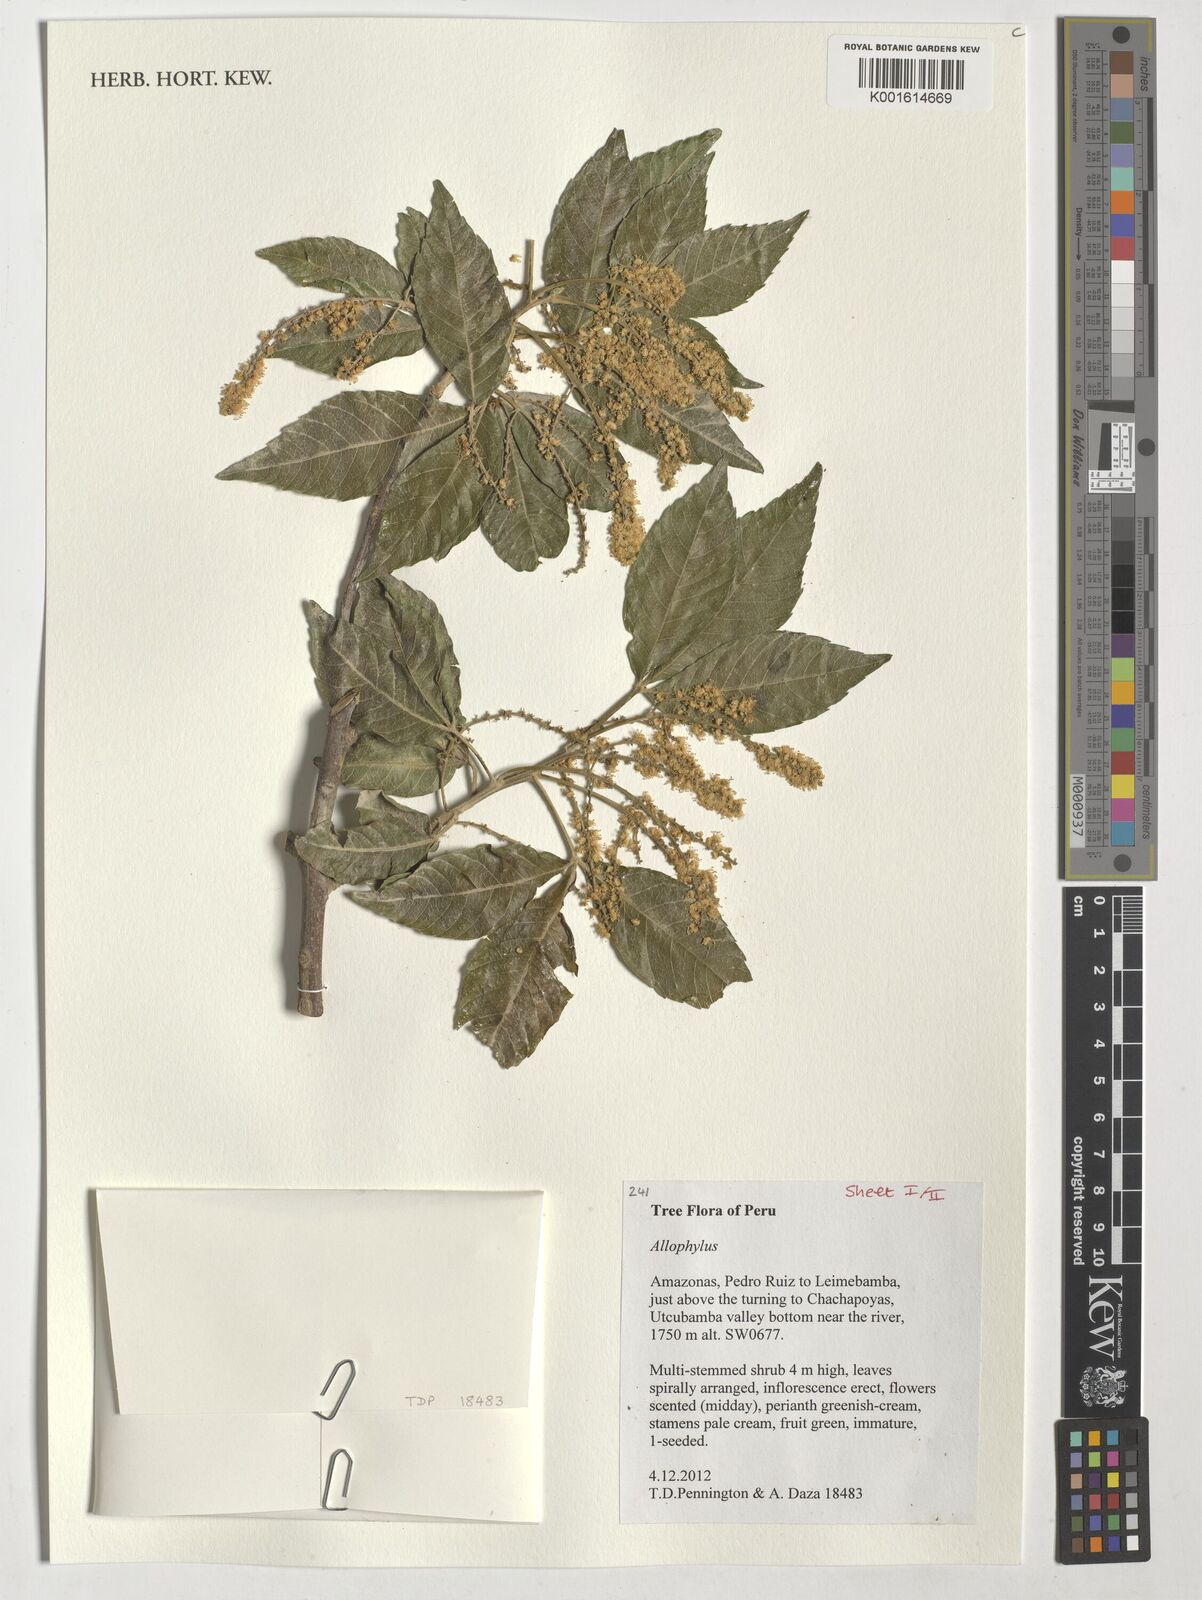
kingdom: Plantae
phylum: Tracheophyta
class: Magnoliopsida
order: Sapindales
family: Sapindaceae
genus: Allophylus
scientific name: Allophylus
